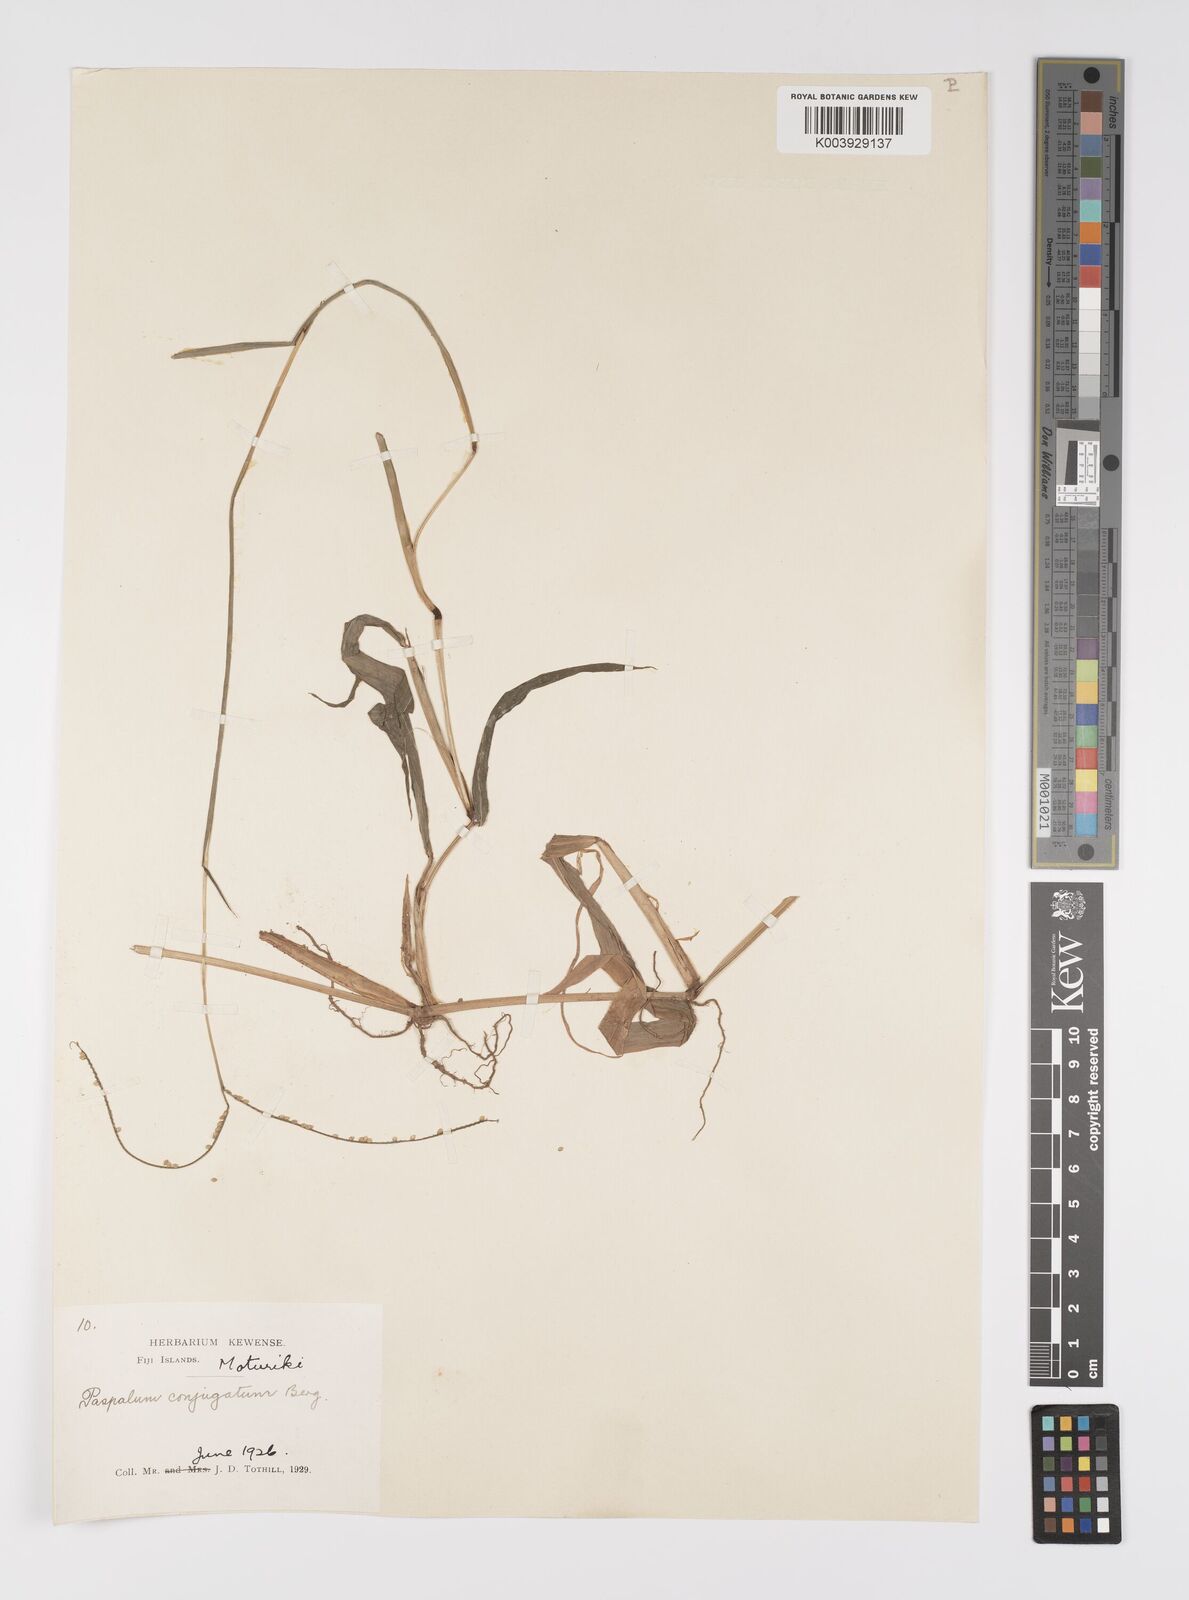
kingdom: Plantae
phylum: Tracheophyta
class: Liliopsida
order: Poales
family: Poaceae
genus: Paspalum
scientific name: Paspalum conjugatum
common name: Hilograss
